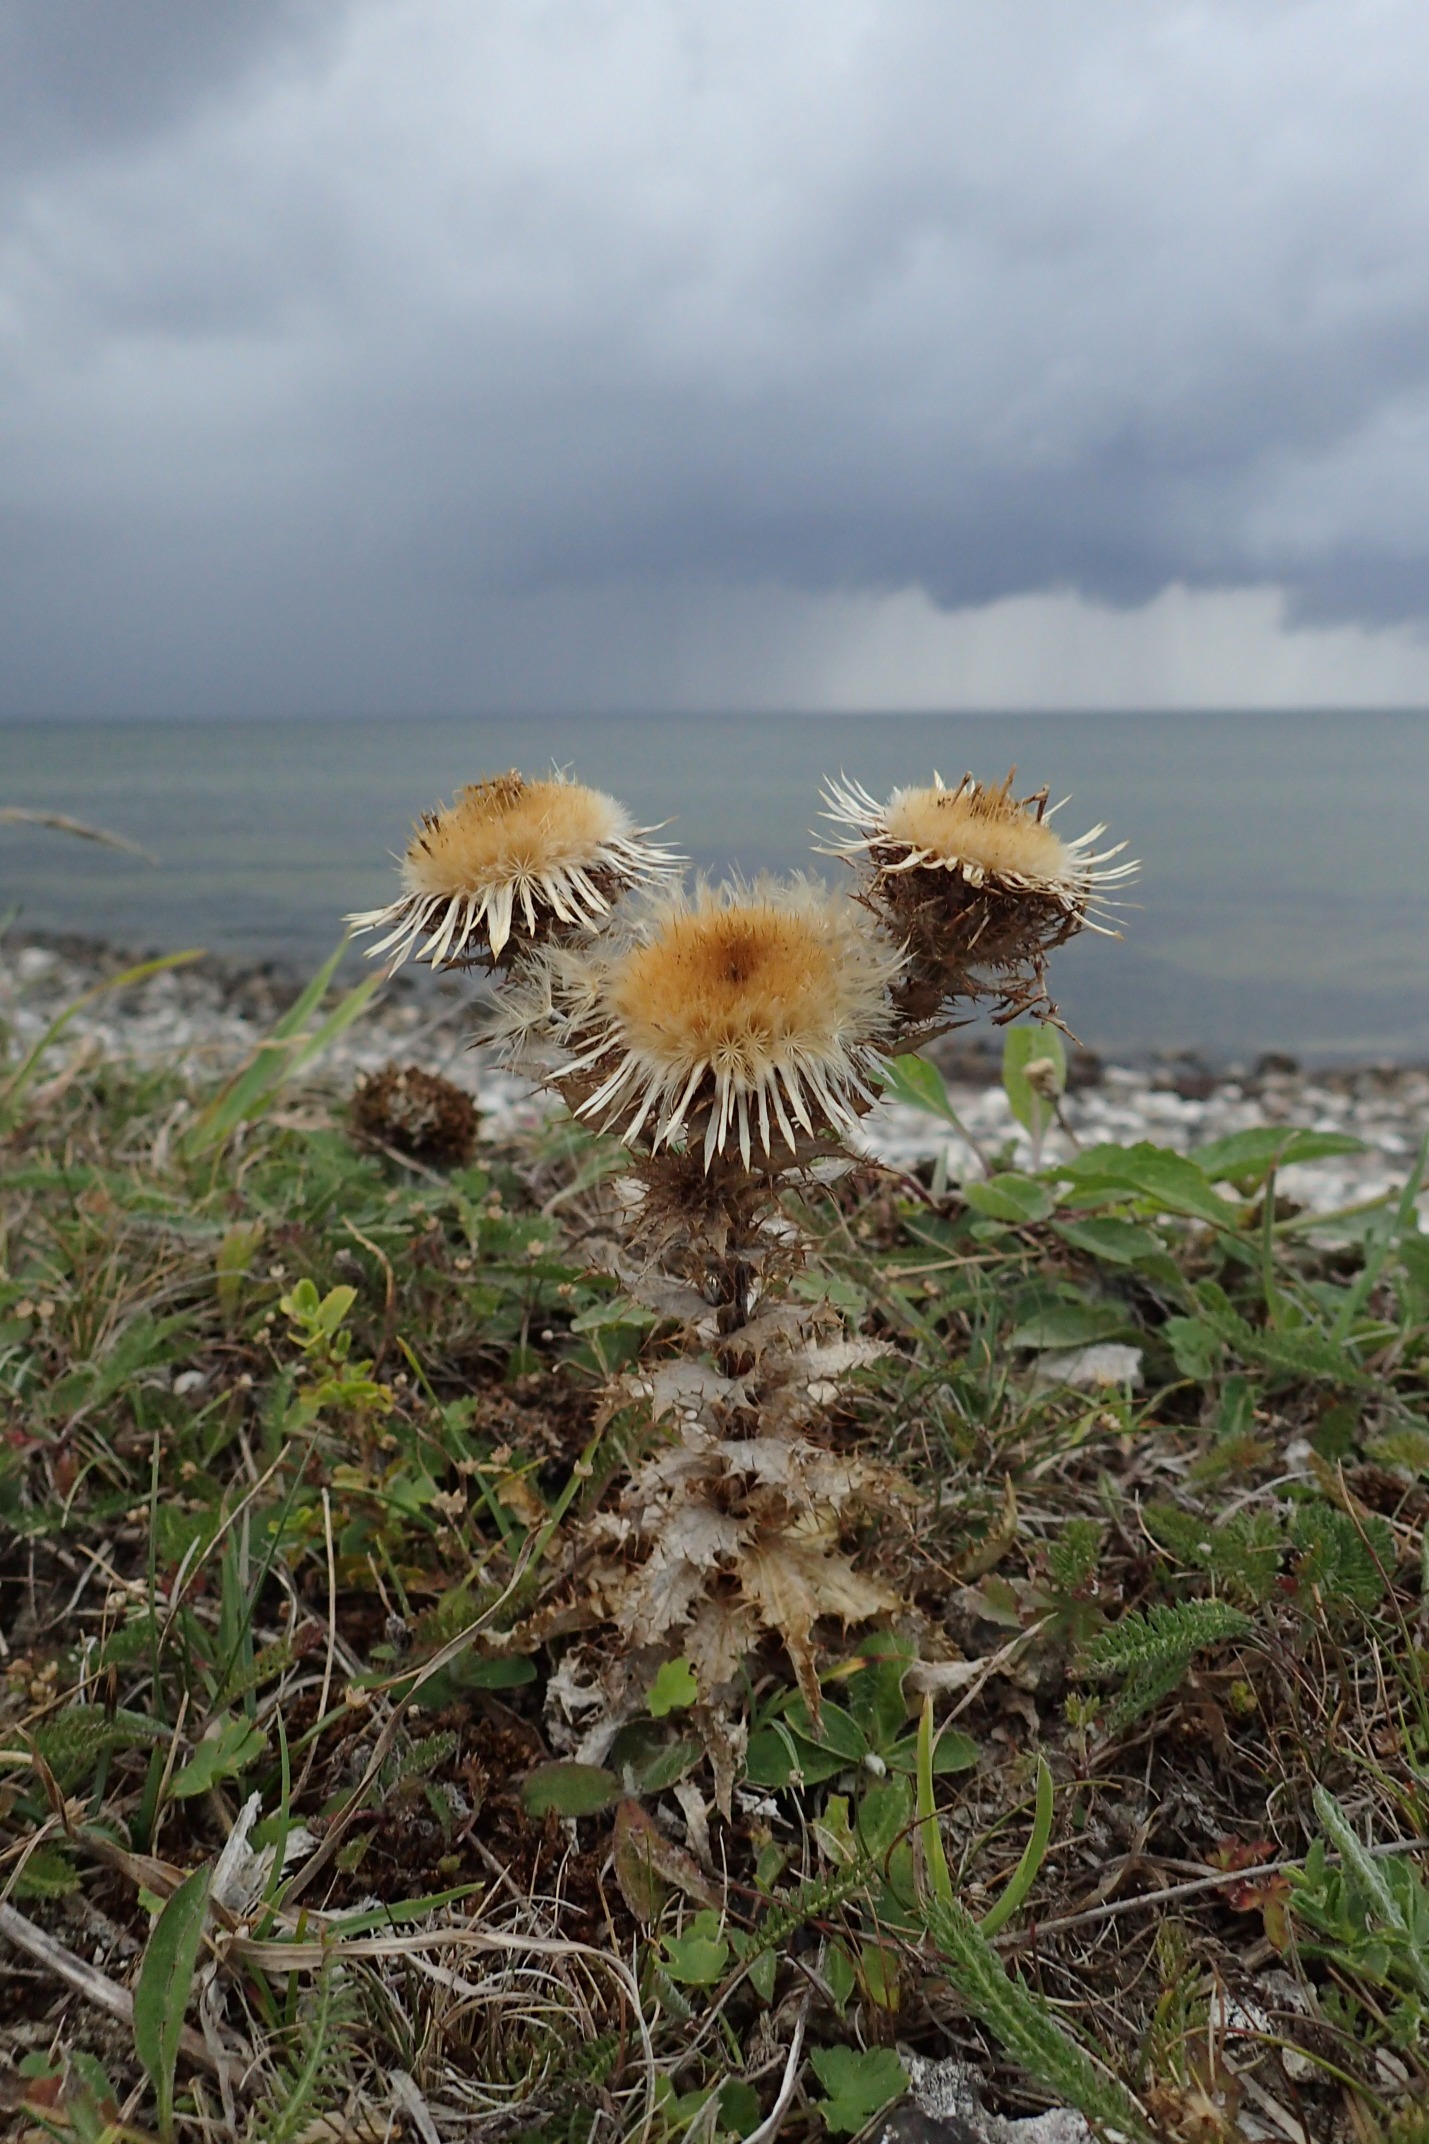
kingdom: Plantae
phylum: Tracheophyta
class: Magnoliopsida
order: Asterales
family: Asteraceae
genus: Carlina
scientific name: Carlina vulgaris
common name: Bakketidsel
